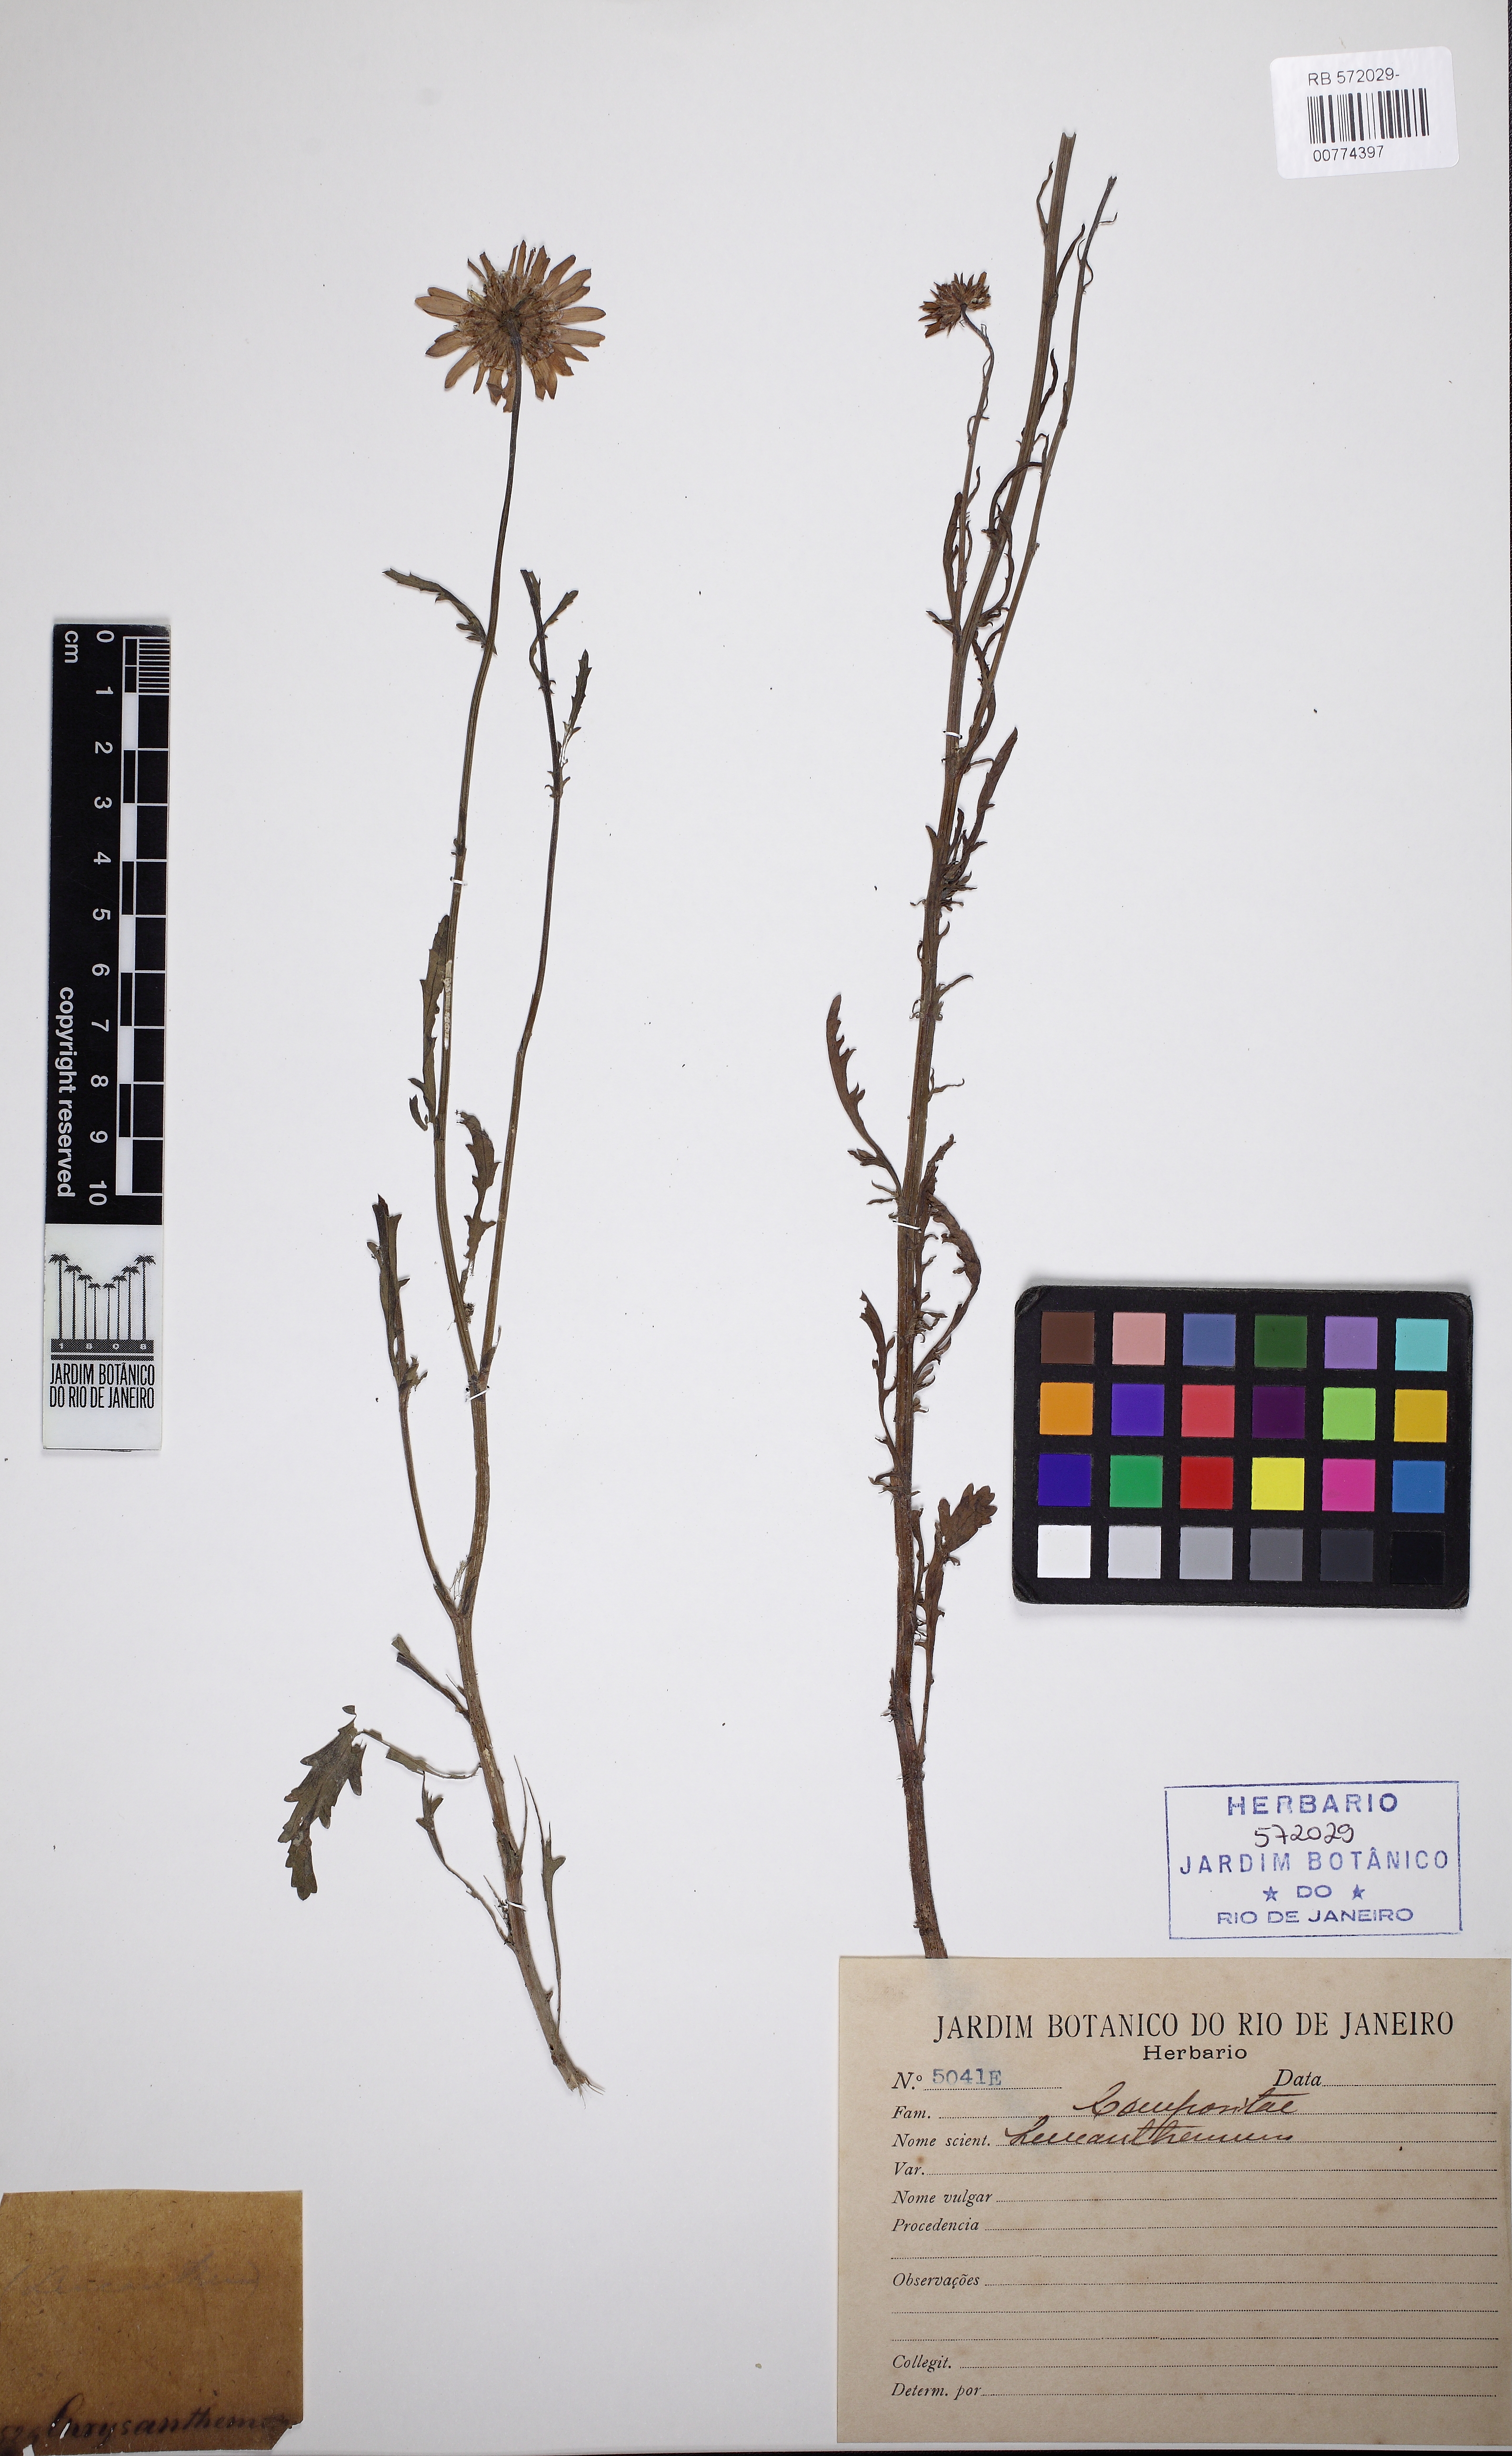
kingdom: Plantae
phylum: Tracheophyta
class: Magnoliopsida
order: Asterales
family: Asteraceae
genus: Chrysanthemum
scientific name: Chrysanthemum
